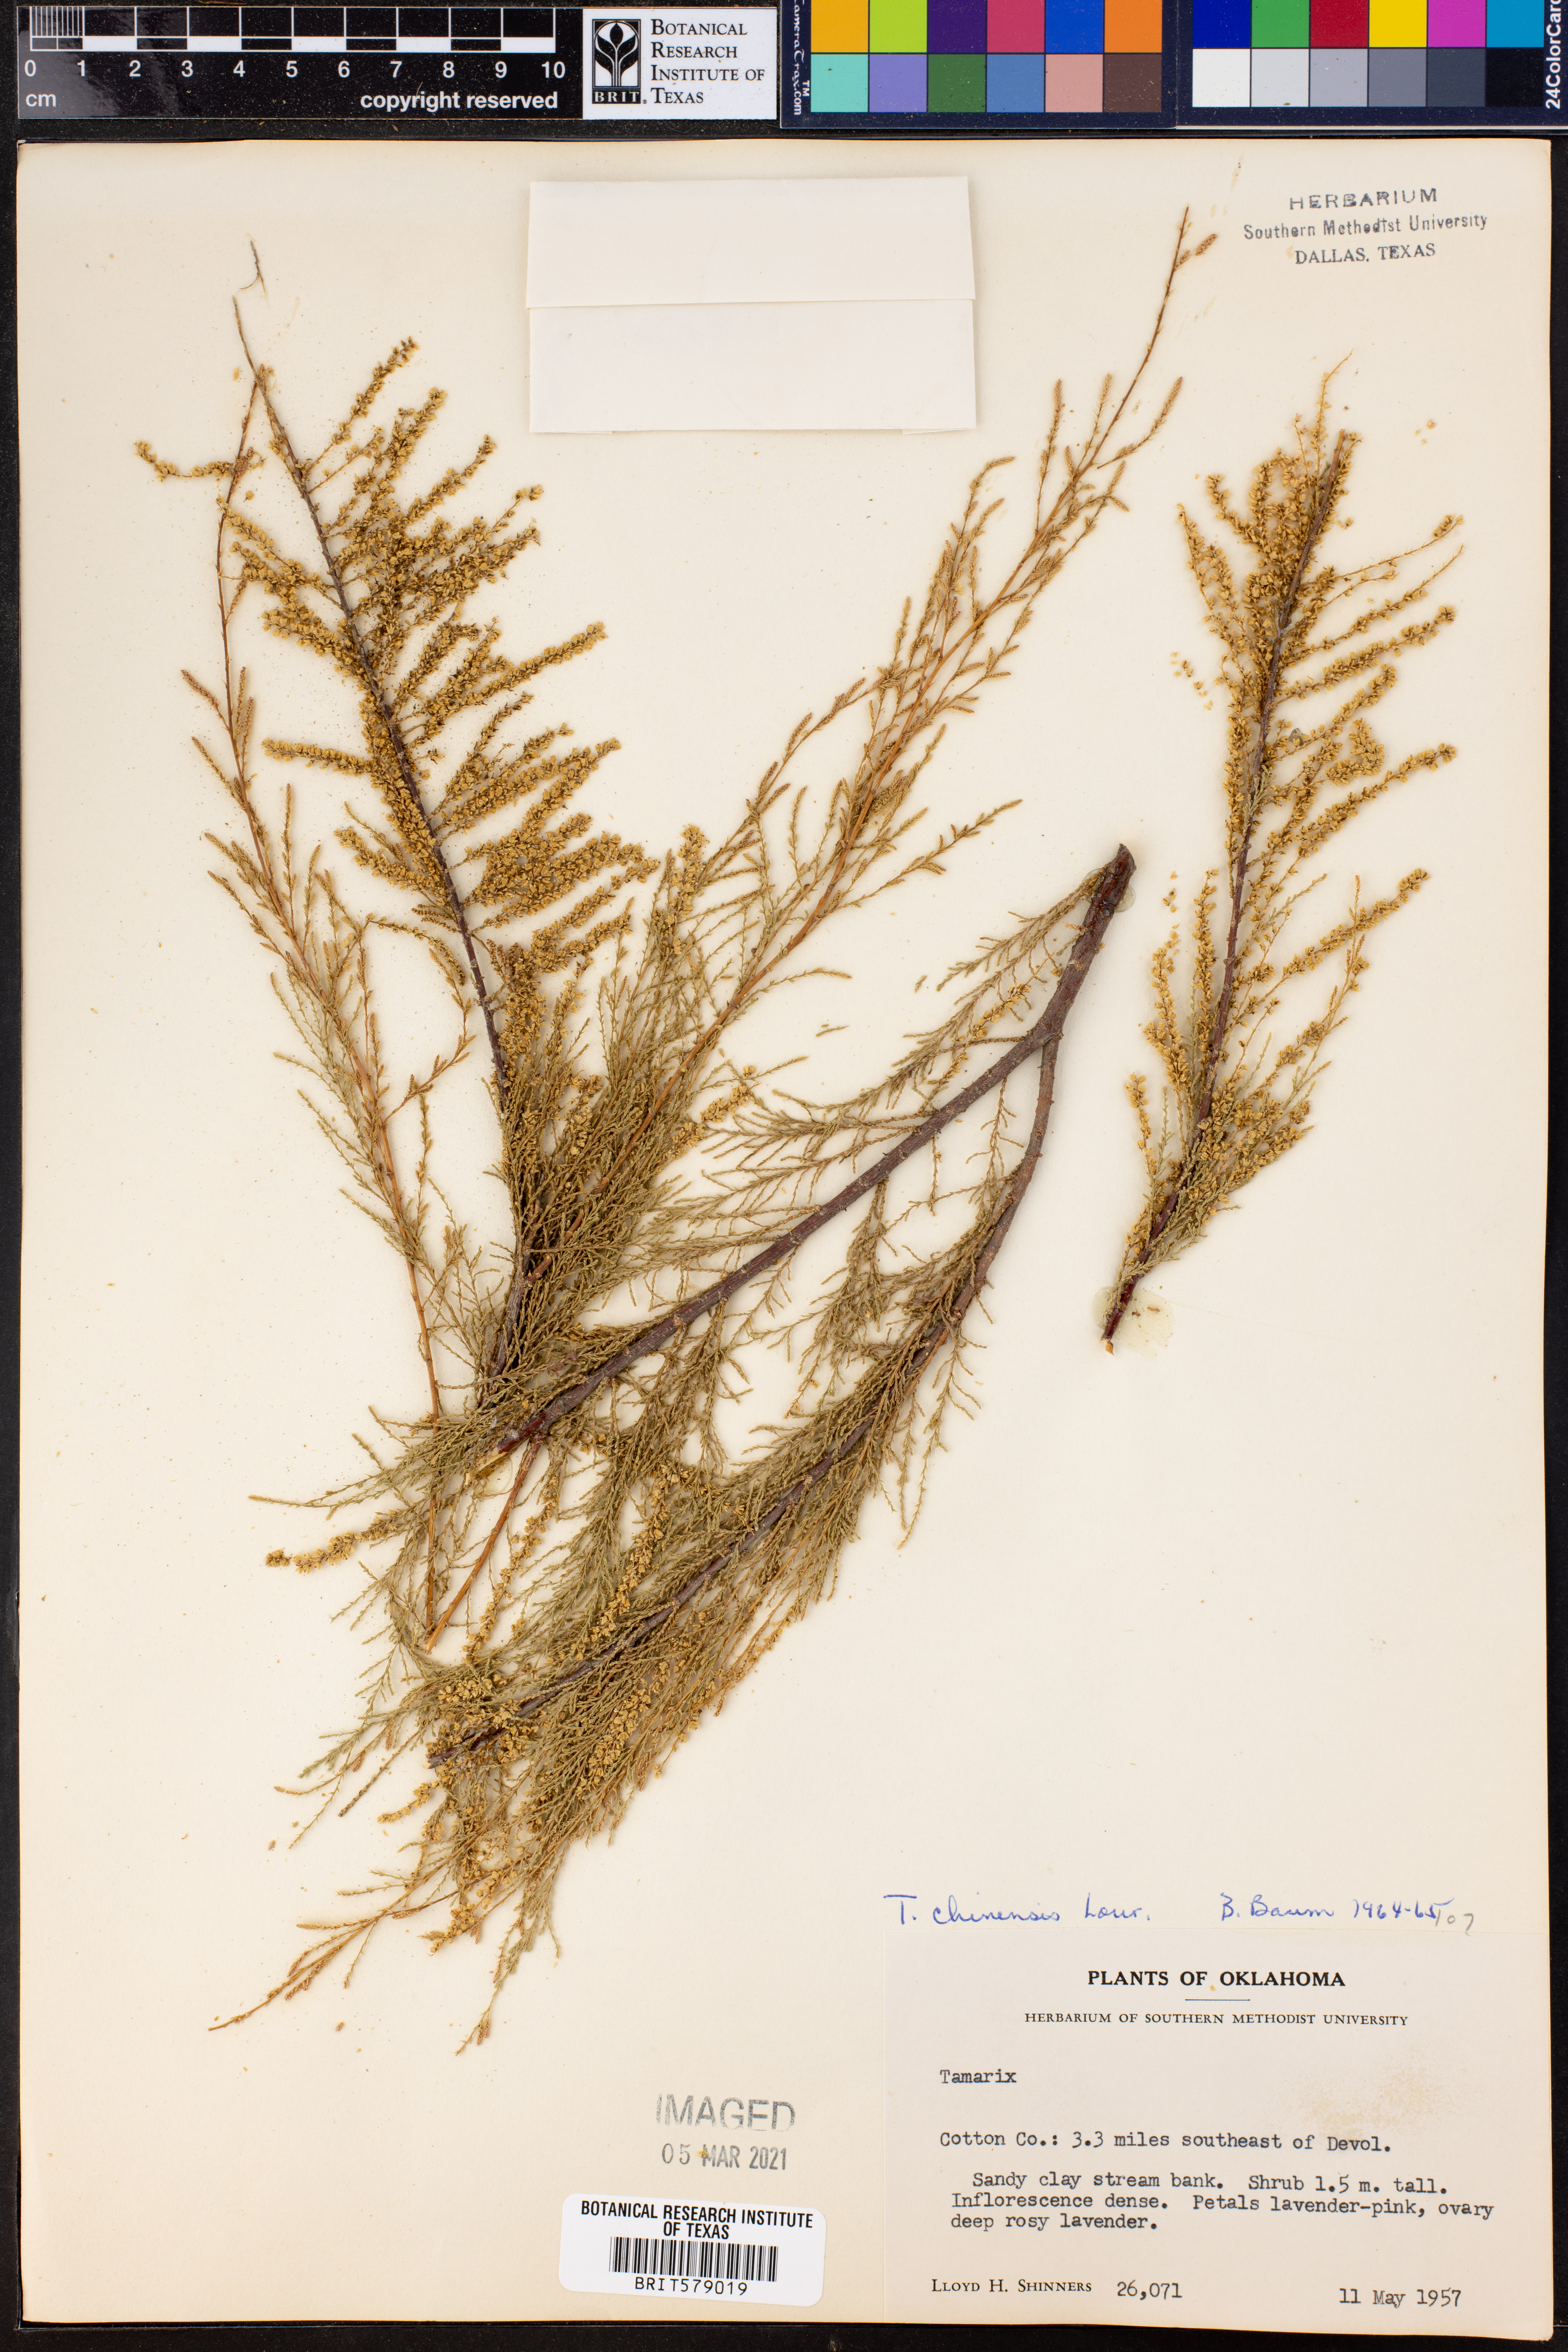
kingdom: Plantae
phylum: Tracheophyta
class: Magnoliopsida
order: Caryophyllales
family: Tamaricaceae
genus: Tamarix
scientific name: Tamarix chinensis
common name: Chinese tamarisk
